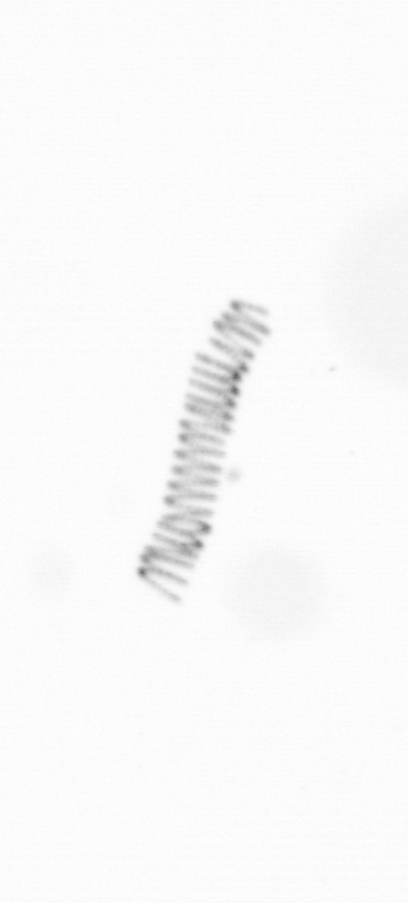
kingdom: Chromista
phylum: Ochrophyta
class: Bacillariophyceae
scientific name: Bacillariophyceae
